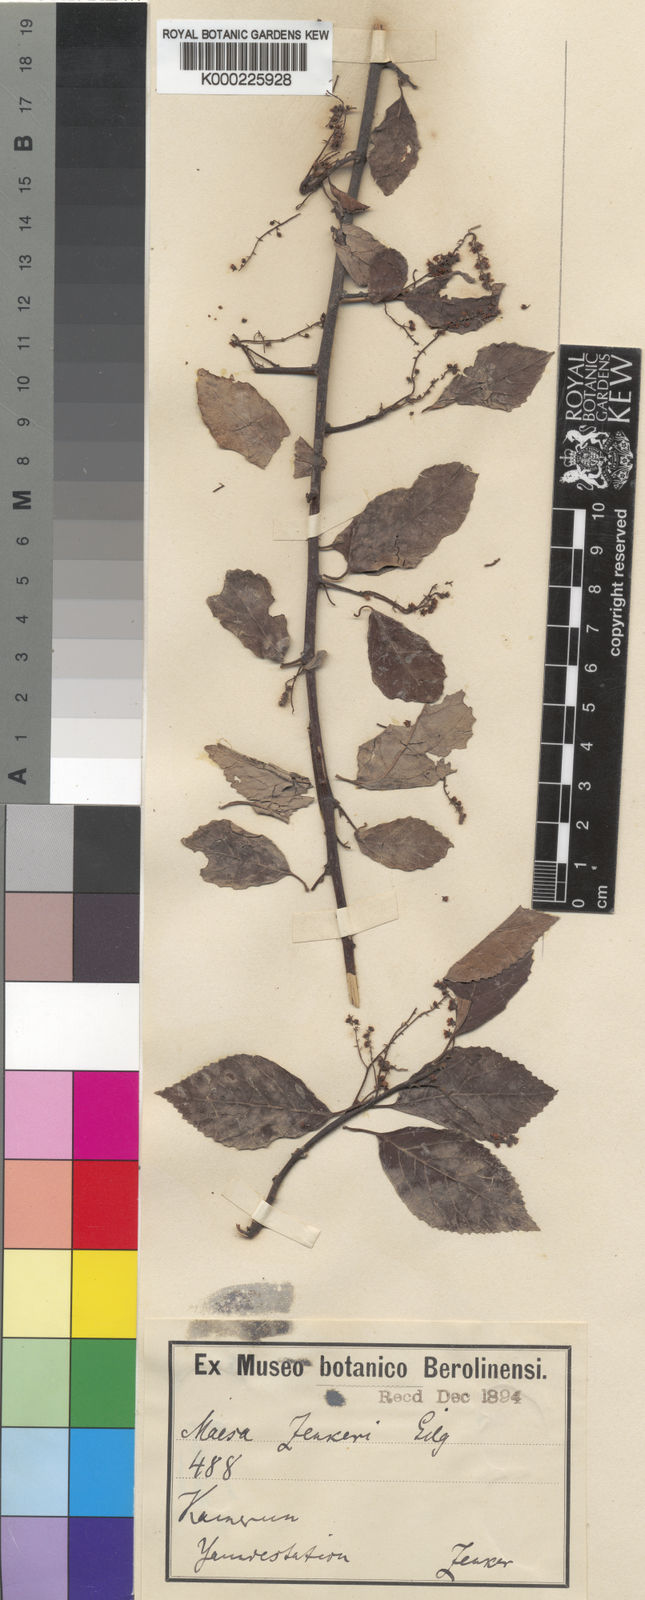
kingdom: Plantae
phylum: Tracheophyta
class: Magnoliopsida
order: Ericales
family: Primulaceae
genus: Maesa
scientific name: Maesa welwitschii
